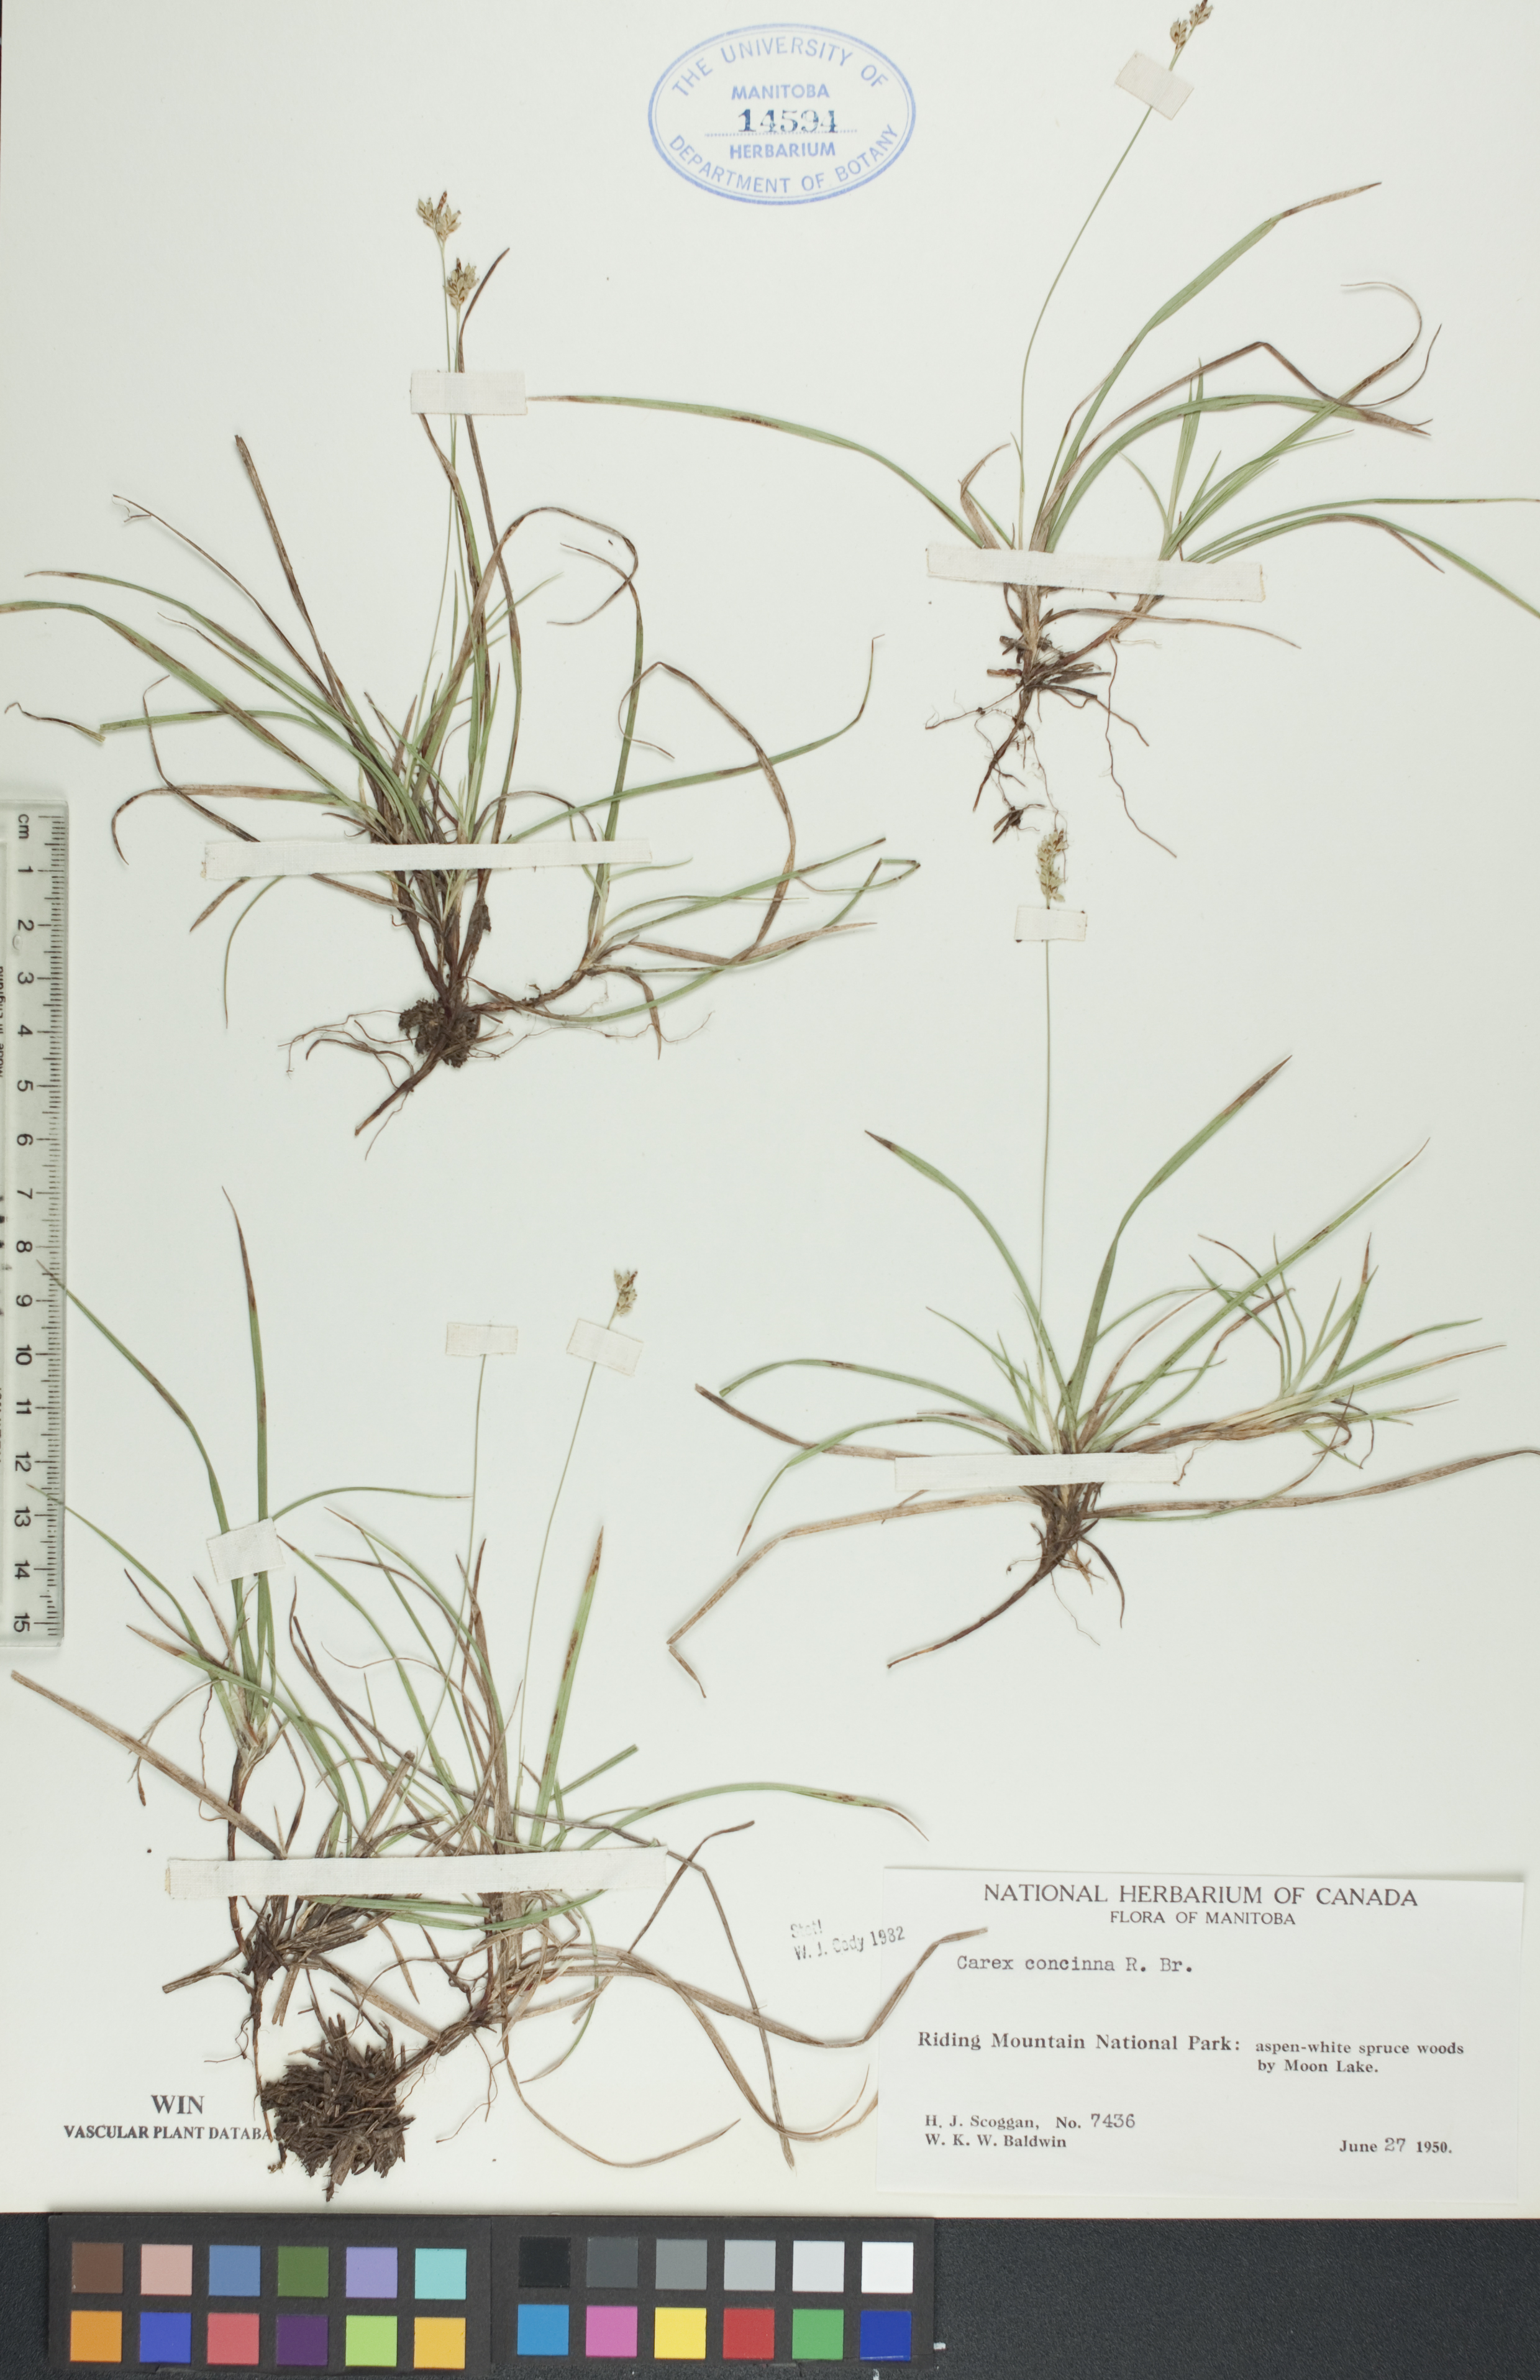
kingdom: Plantae
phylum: Tracheophyta
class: Liliopsida
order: Poales
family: Cyperaceae
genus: Carex
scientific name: Carex concinna
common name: Beautiful sedge
